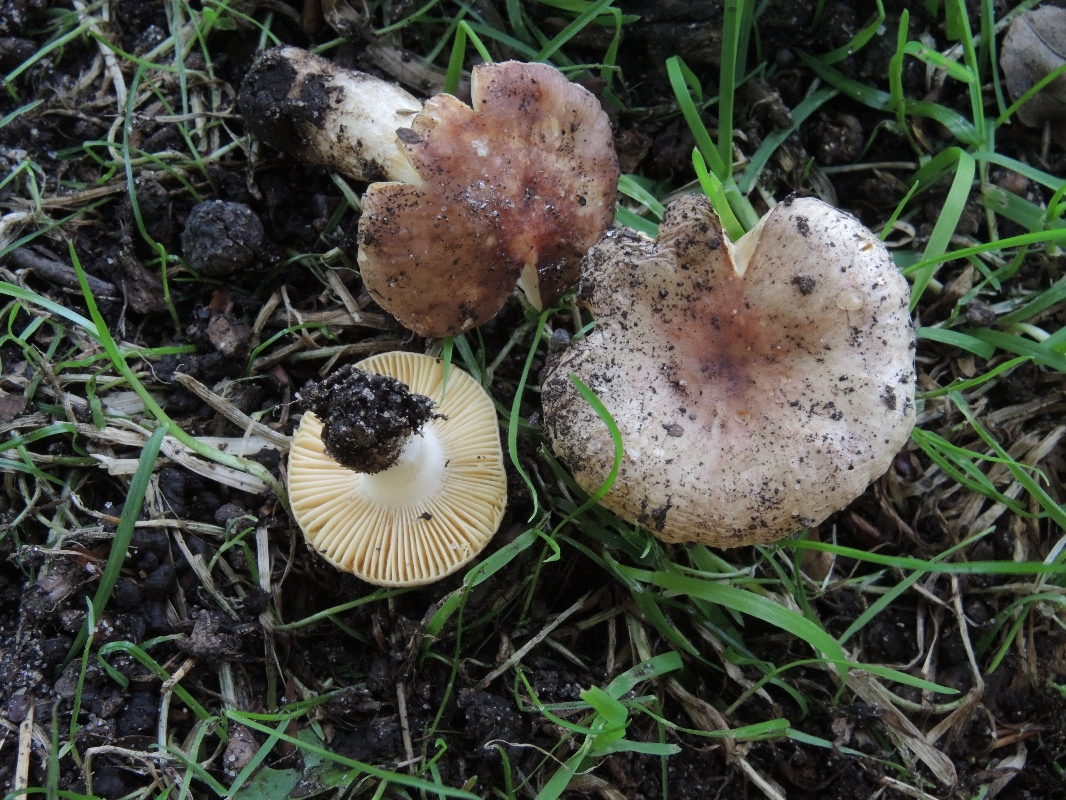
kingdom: Fungi
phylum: Basidiomycota
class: Agaricomycetes
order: Russulales
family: Russulaceae
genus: Russula
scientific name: Russula odorata
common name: duft-skørhat
